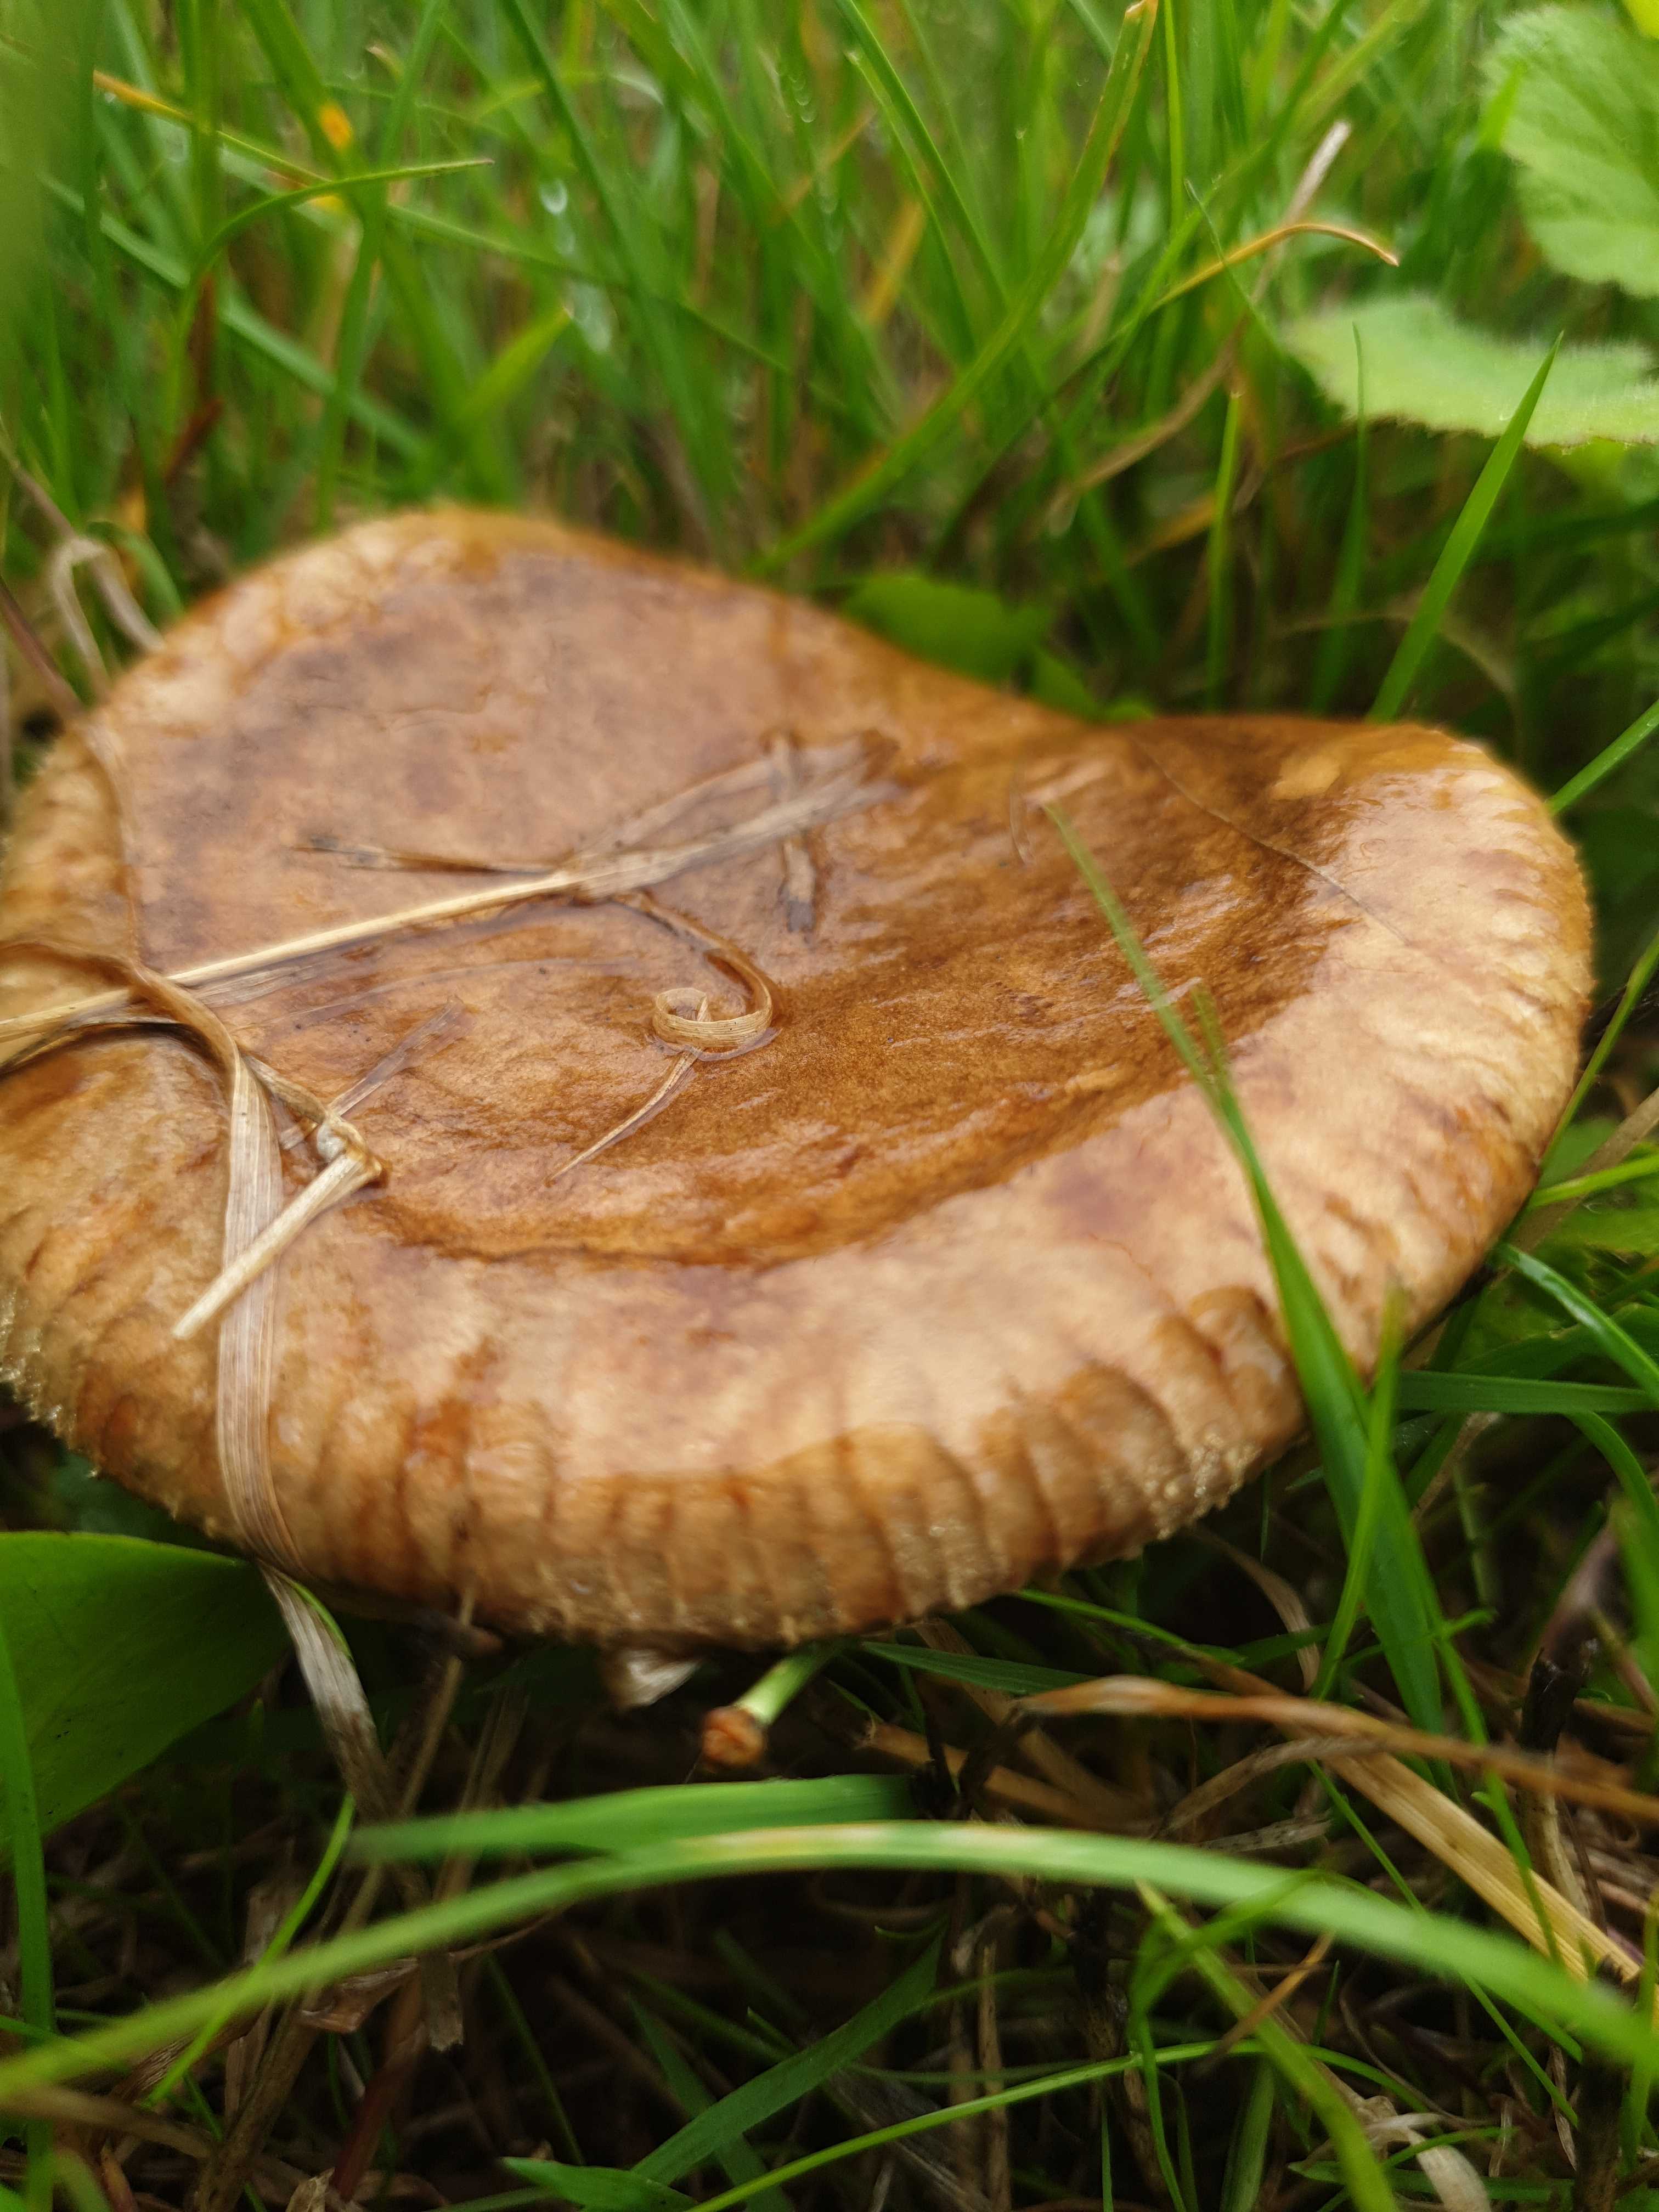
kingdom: Fungi
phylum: Basidiomycota
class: Agaricomycetes
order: Boletales
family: Paxillaceae
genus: Paxillus
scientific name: Paxillus involutus
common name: almindelig netbladhat
